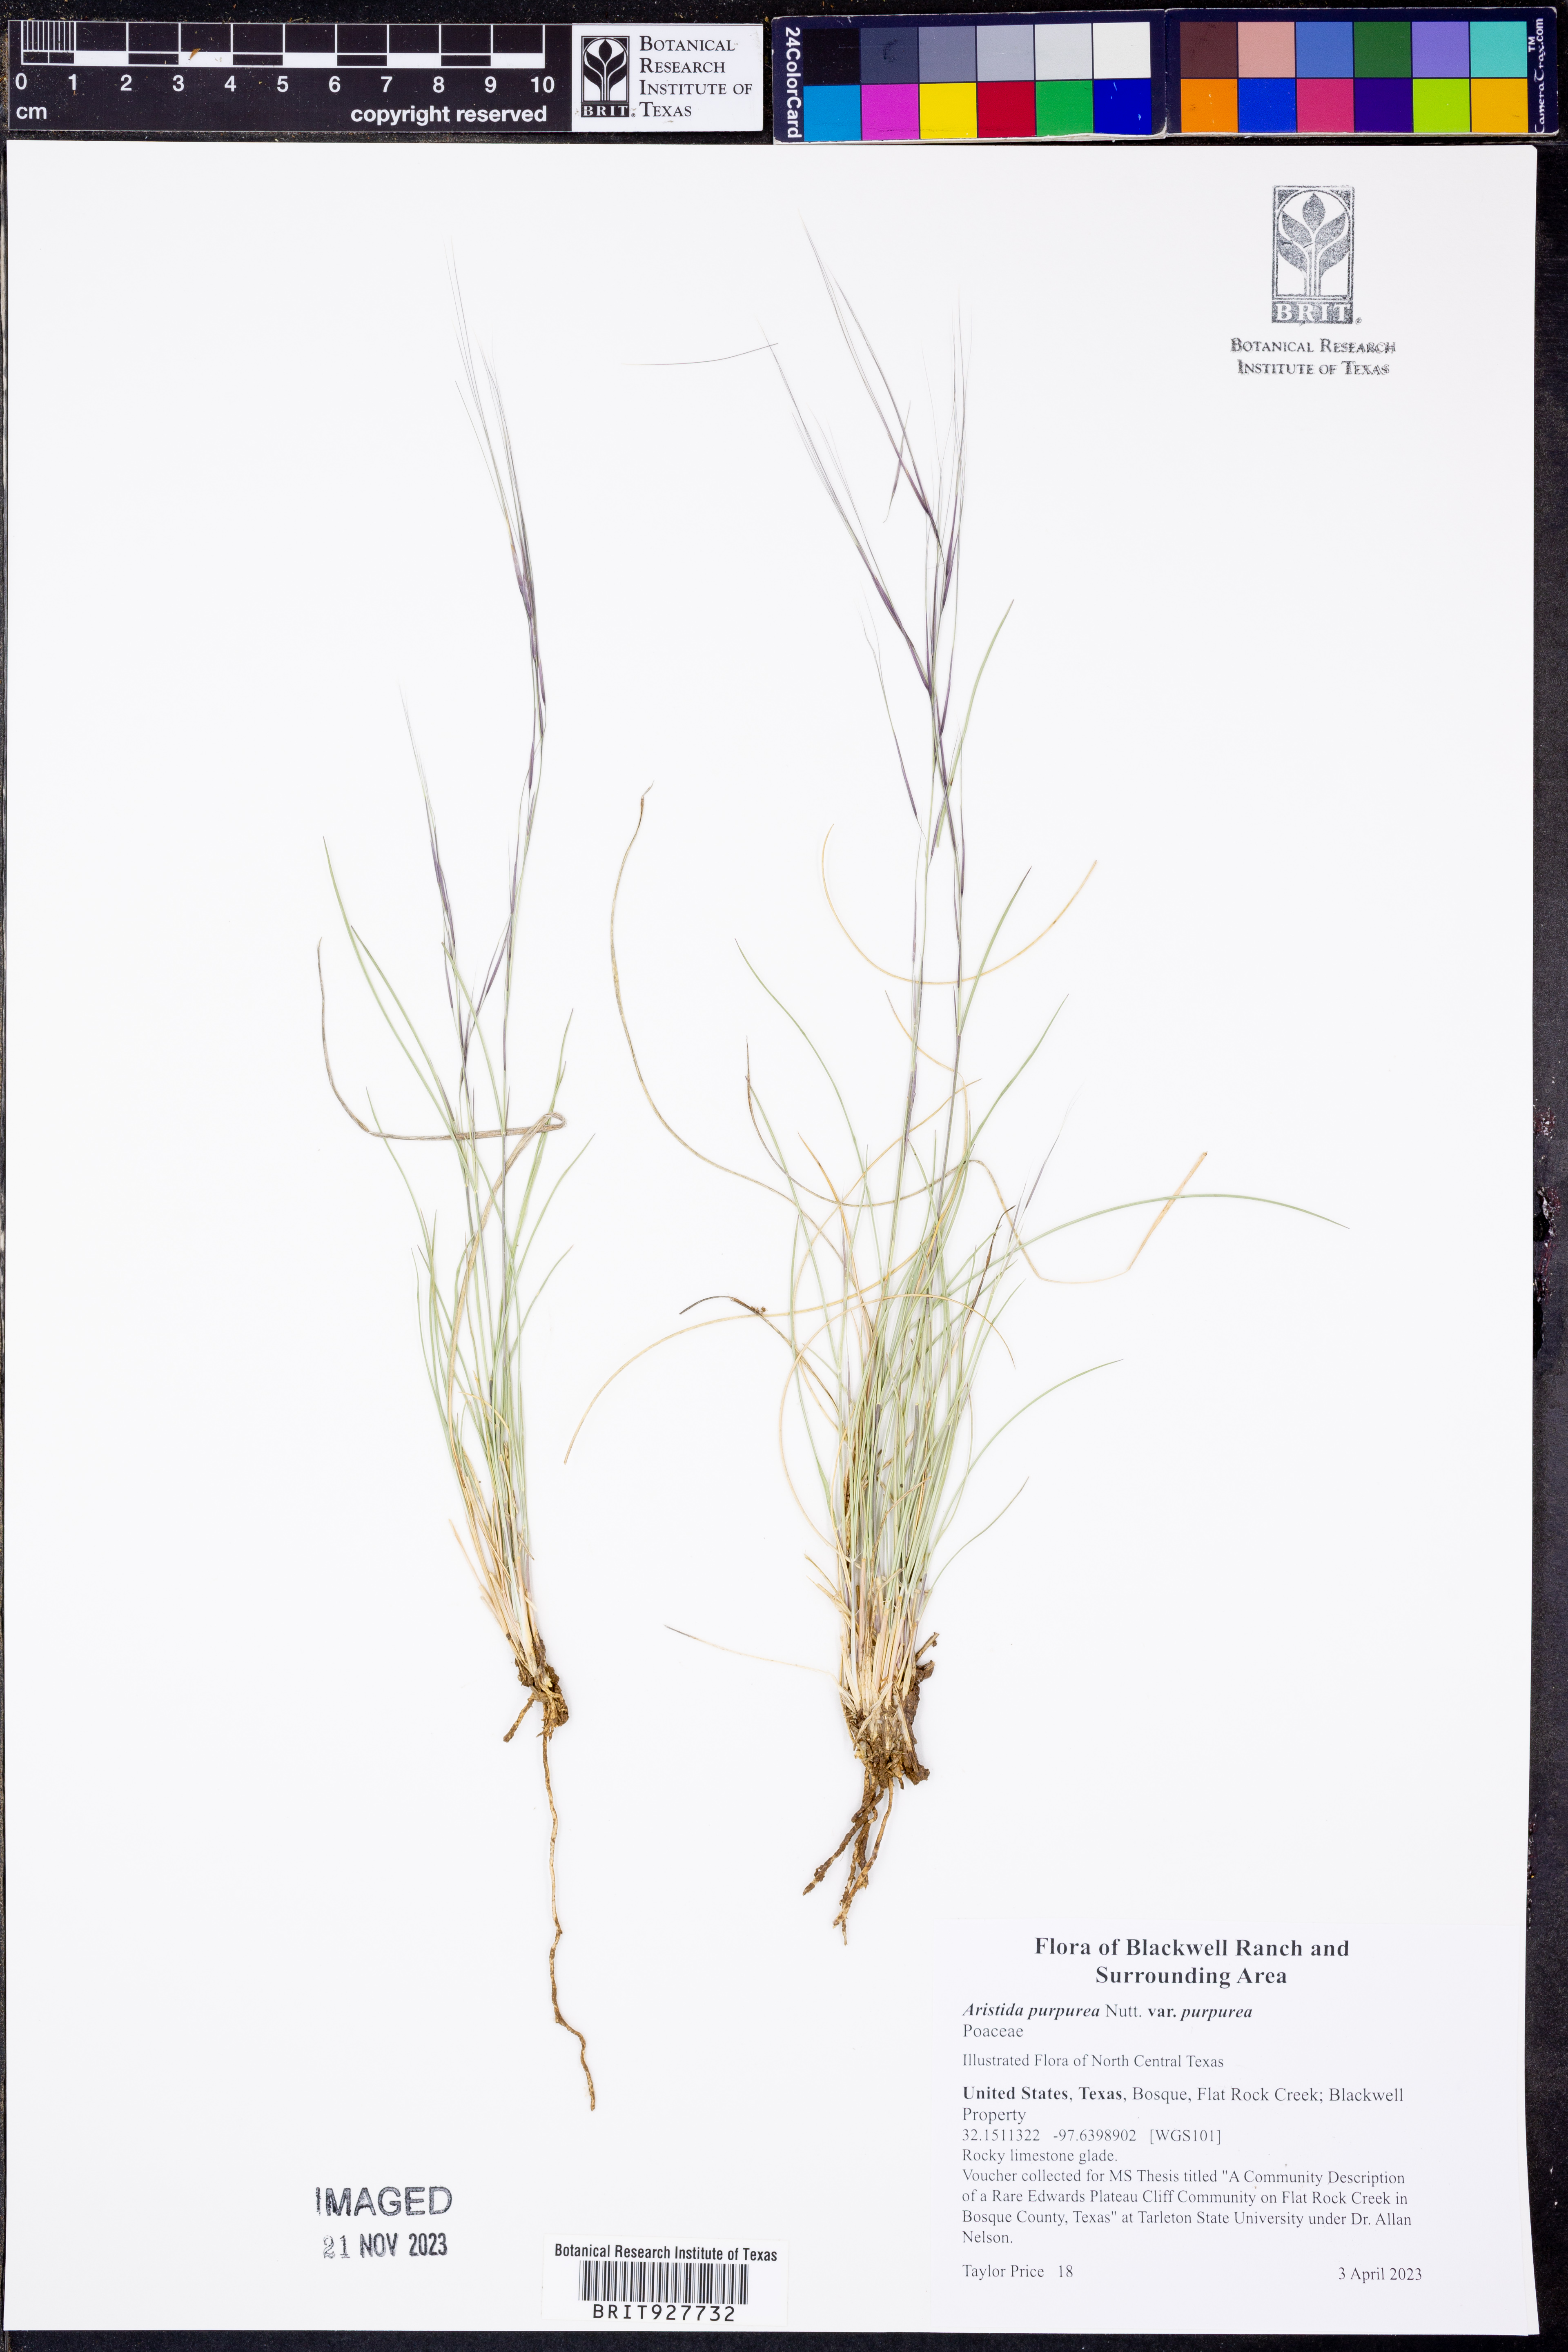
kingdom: Plantae
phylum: Tracheophyta
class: Liliopsida
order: Poales
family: Poaceae
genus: Aristida
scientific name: Aristida purpurea
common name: Purple threeawn
